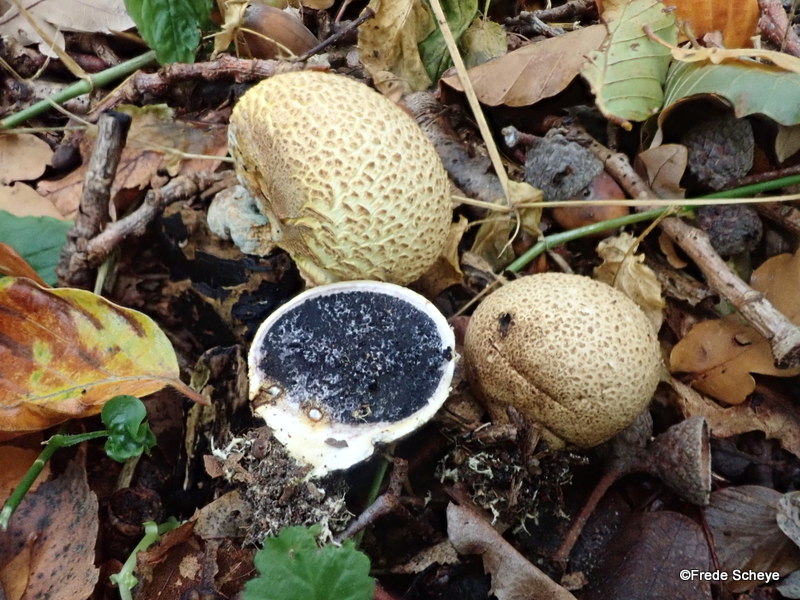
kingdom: Fungi
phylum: Basidiomycota
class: Agaricomycetes
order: Boletales
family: Sclerodermataceae
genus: Scleroderma
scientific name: Scleroderma citrinum
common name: almindelig bruskbold
